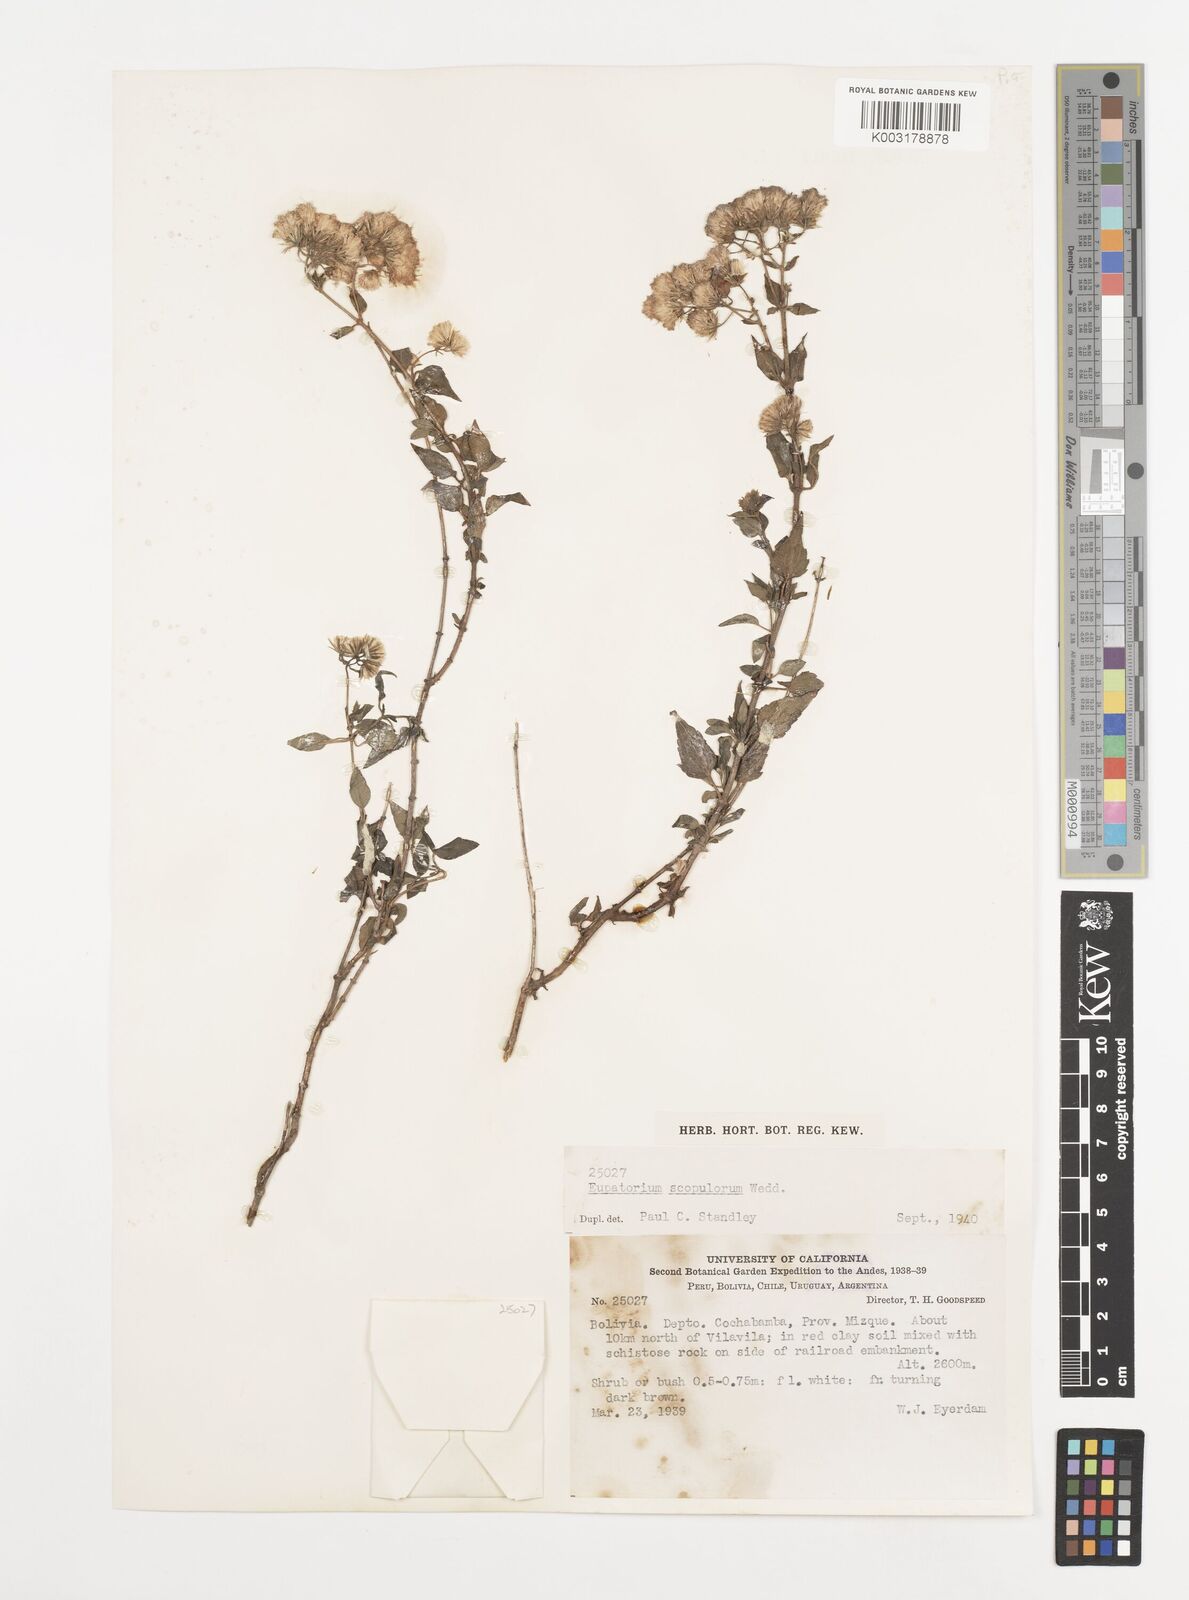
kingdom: Plantae
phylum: Tracheophyta
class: Magnoliopsida
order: Asterales
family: Asteraceae
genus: Ageratina
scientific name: Ageratina scopulorum
